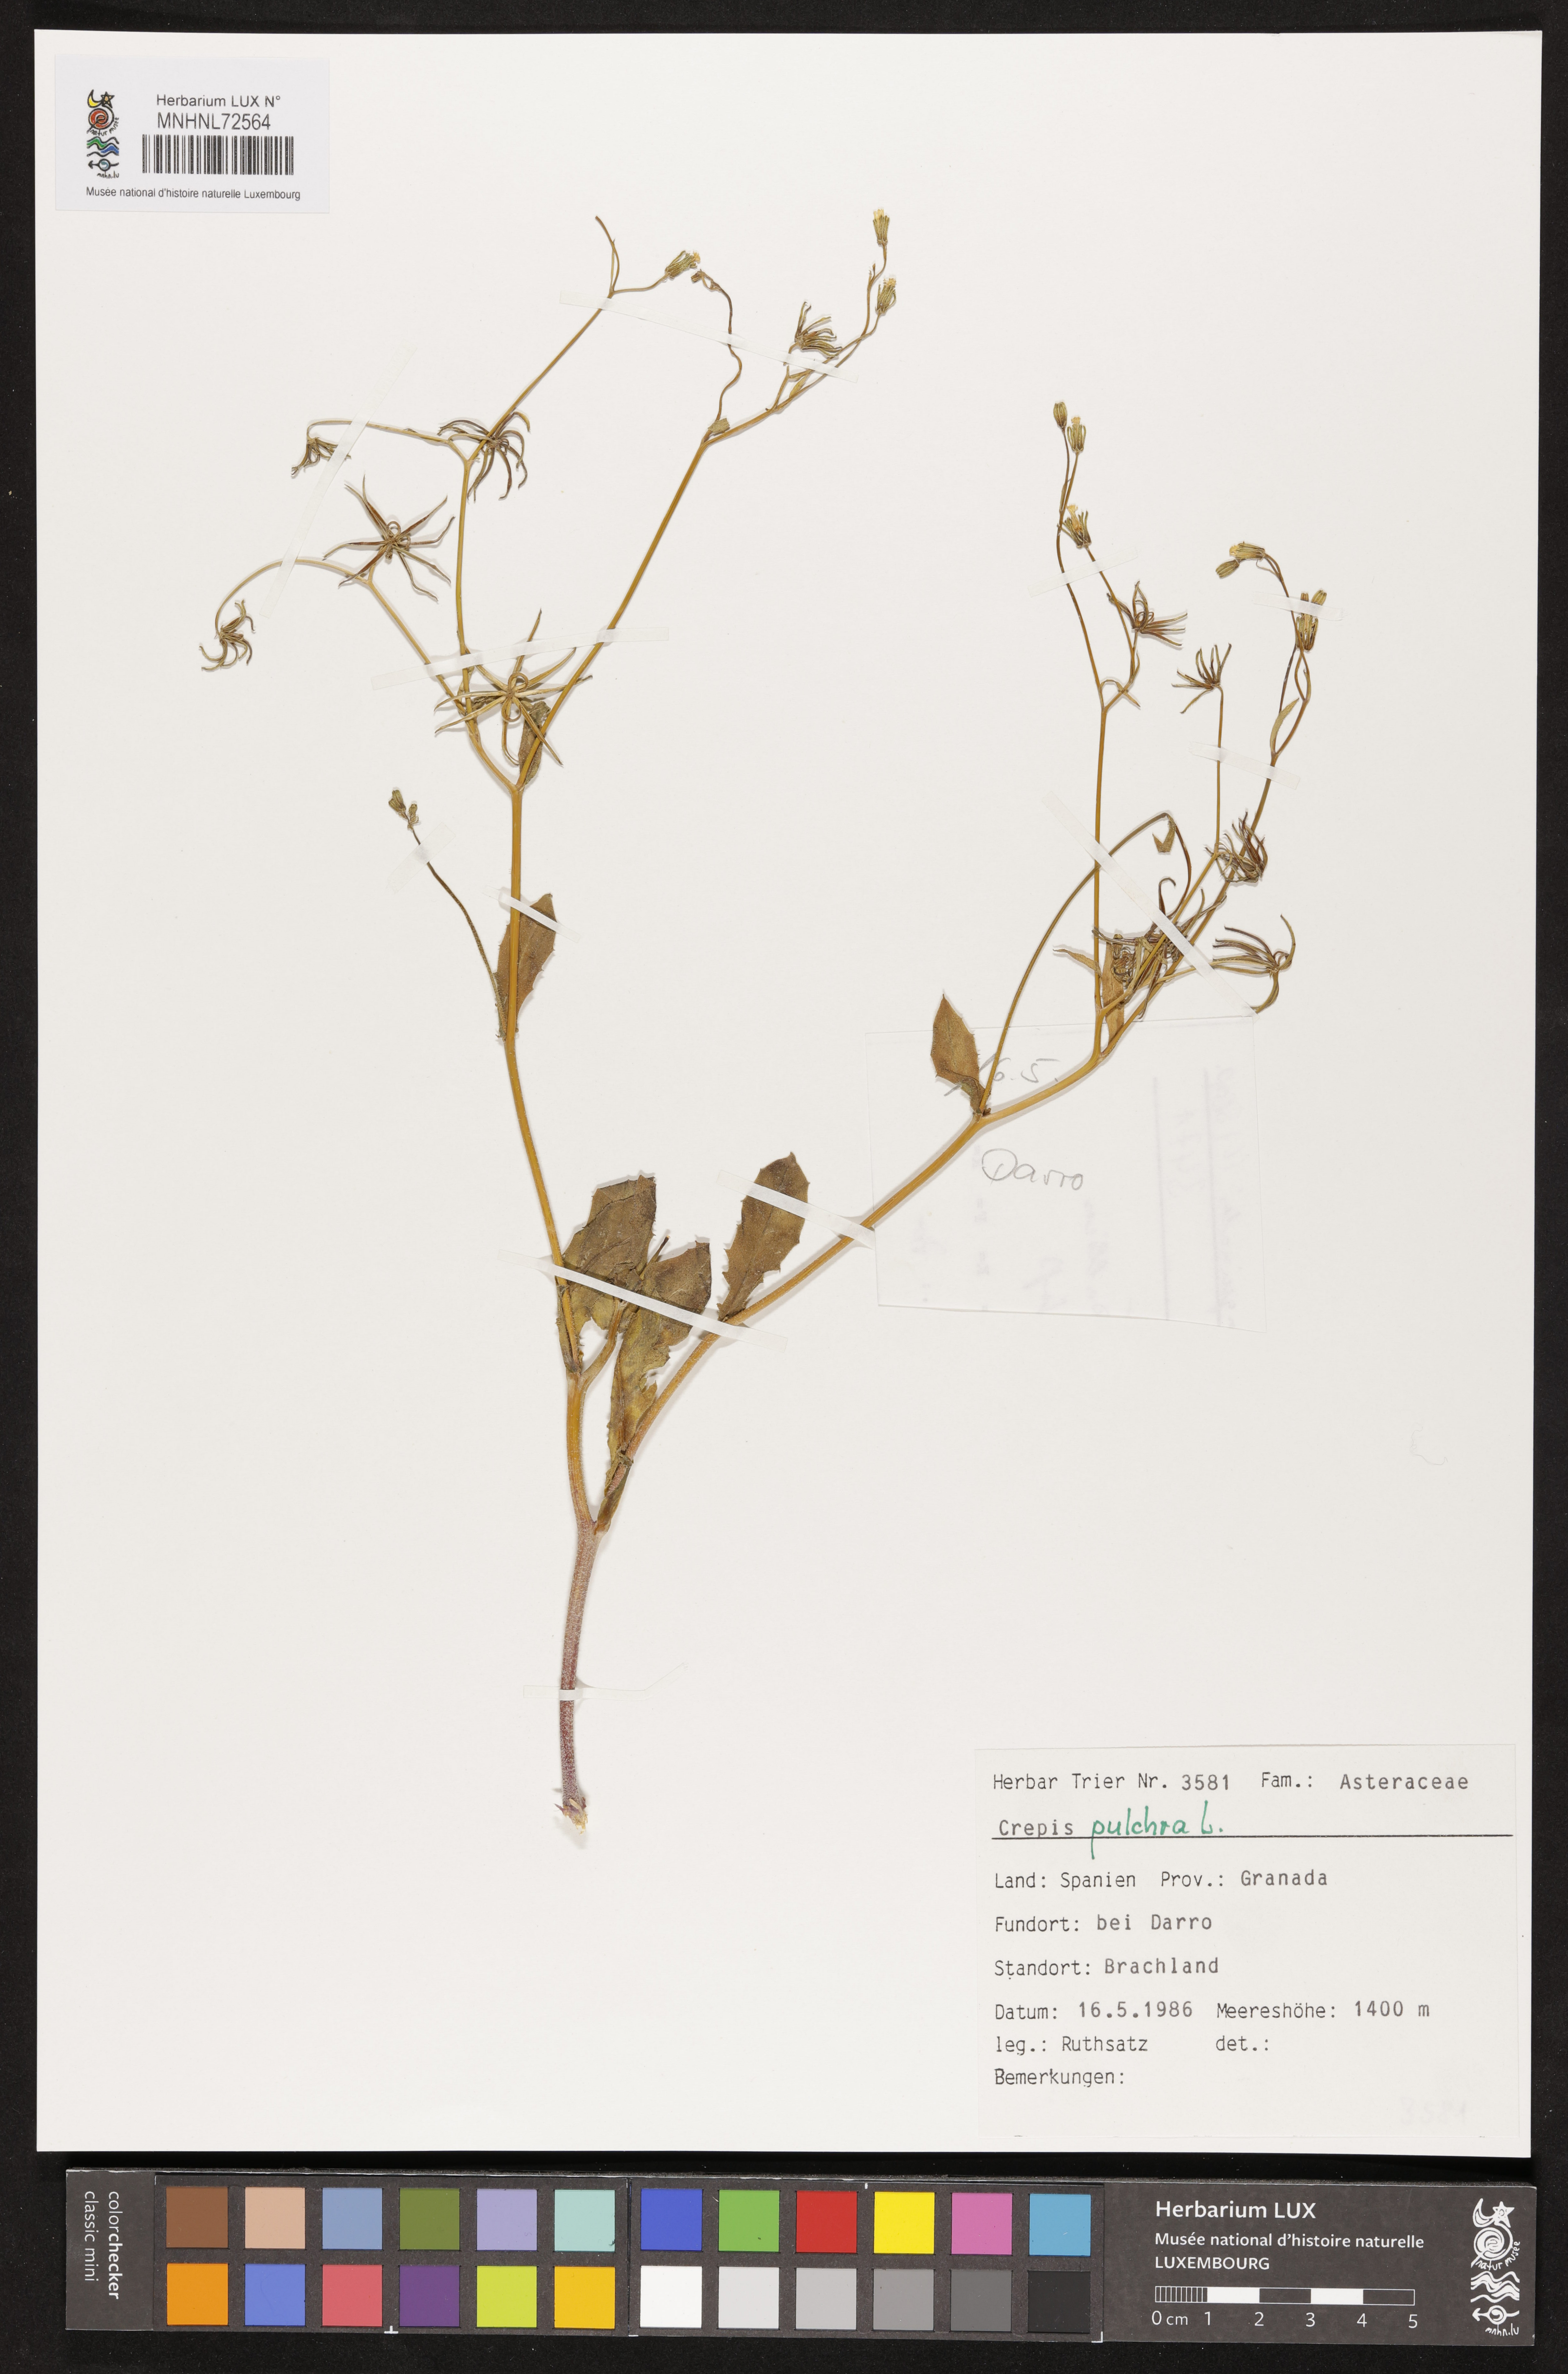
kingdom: Plantae
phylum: Tracheophyta
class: Magnoliopsida
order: Asterales
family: Asteraceae
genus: Crepis
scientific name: Crepis pulchra
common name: Hawk's-beard
